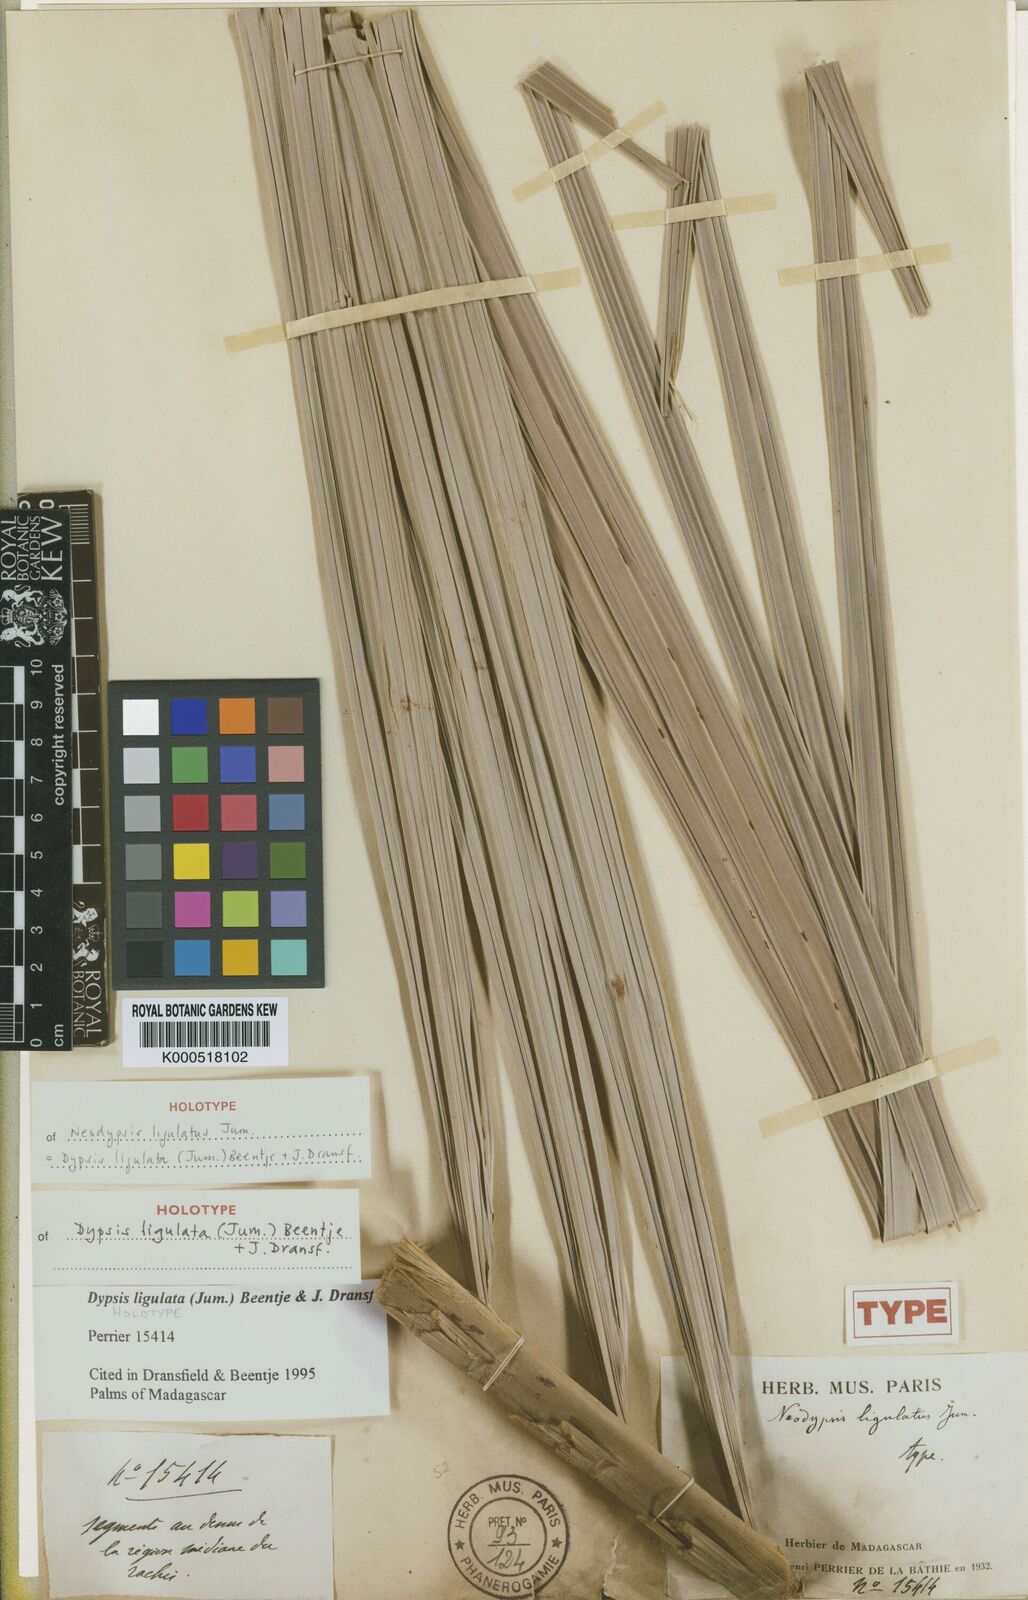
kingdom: Plantae
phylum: Tracheophyta
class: Liliopsida
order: Arecales
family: Arecaceae
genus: Dypsis
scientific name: Dypsis ligulata
